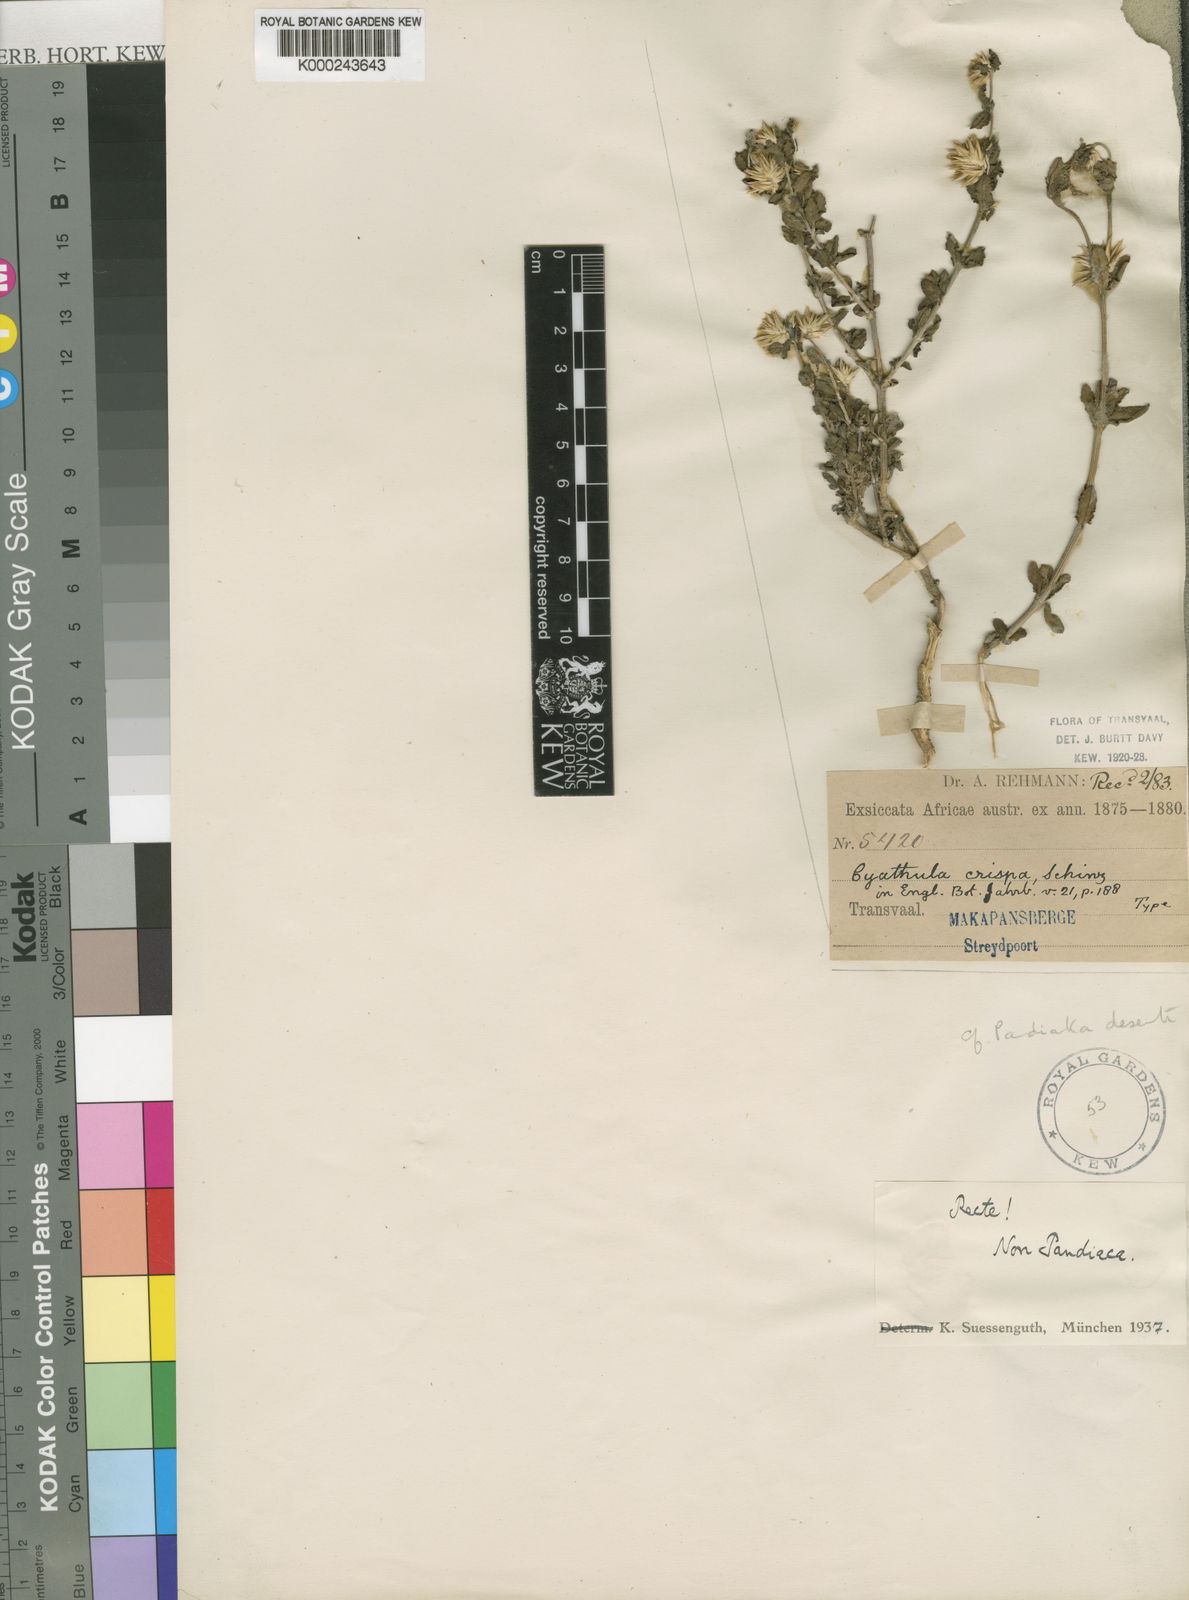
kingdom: Plantae
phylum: Tracheophyta
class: Magnoliopsida
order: Caryophyllales
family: Amaranthaceae
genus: Cyathula
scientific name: Cyathula lanceolata
